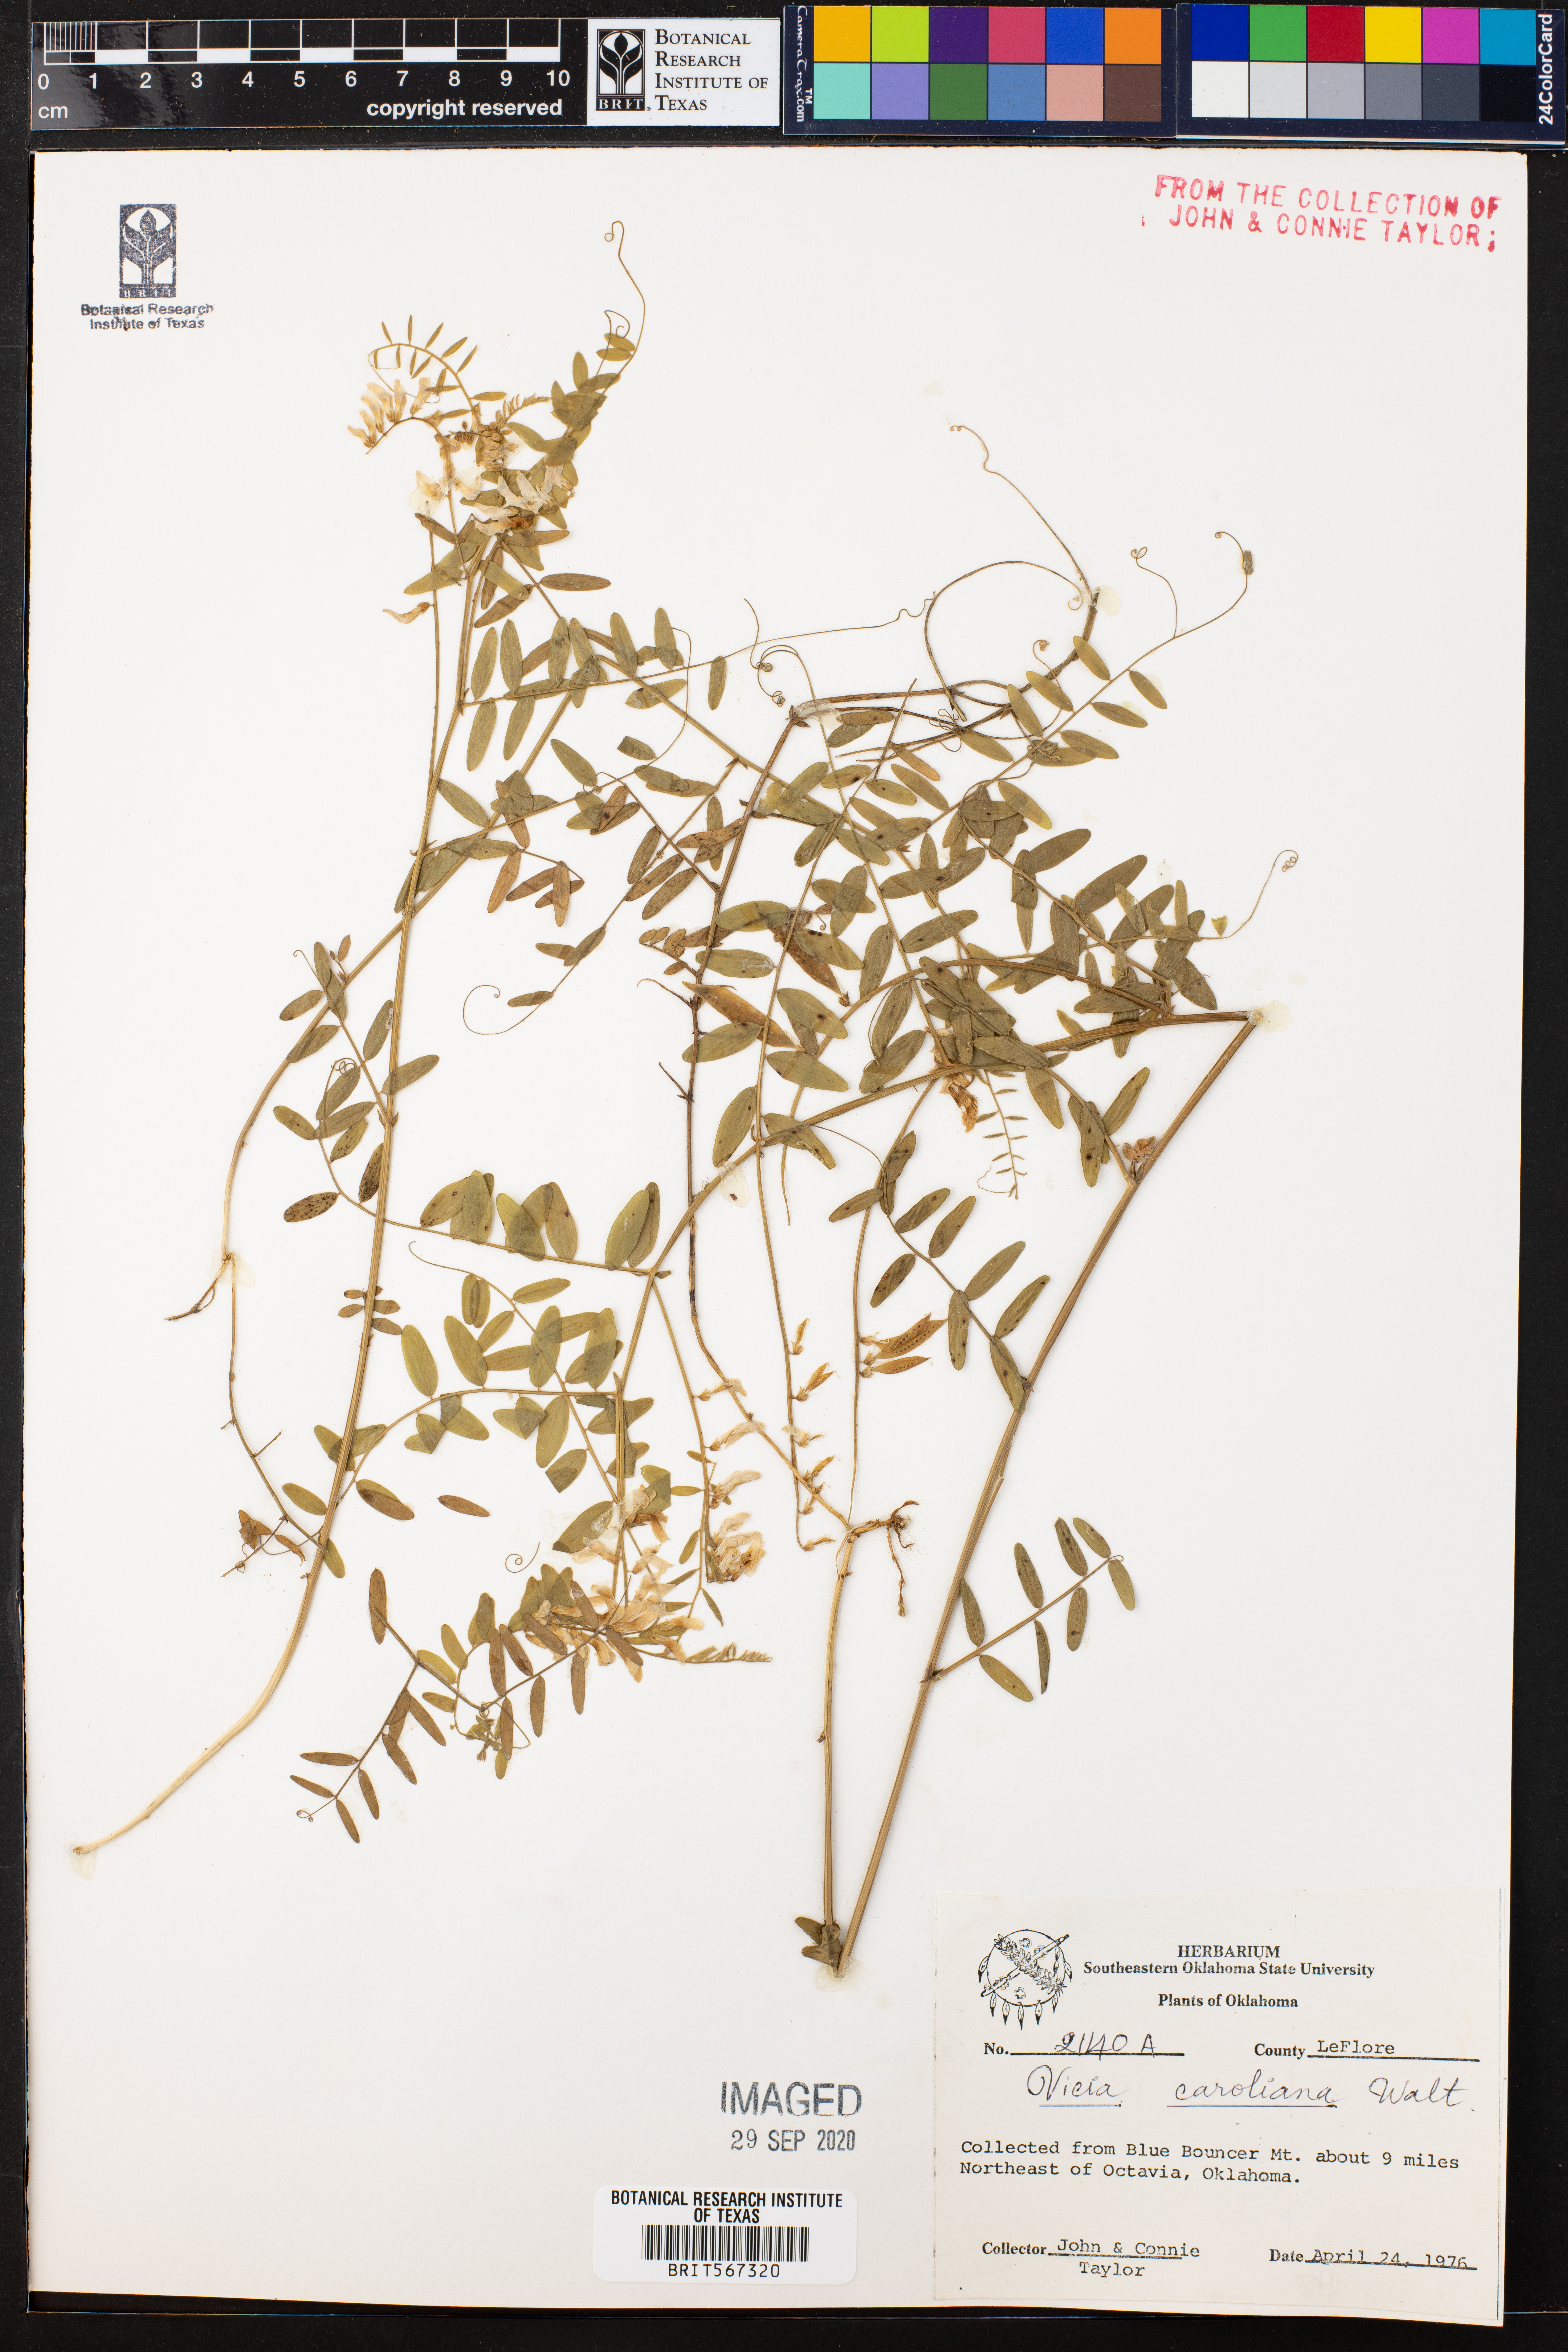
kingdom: Plantae
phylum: Tracheophyta
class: Magnoliopsida
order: Fabales
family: Fabaceae
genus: Vicia
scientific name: Vicia caroliniana
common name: Carolina vetch
